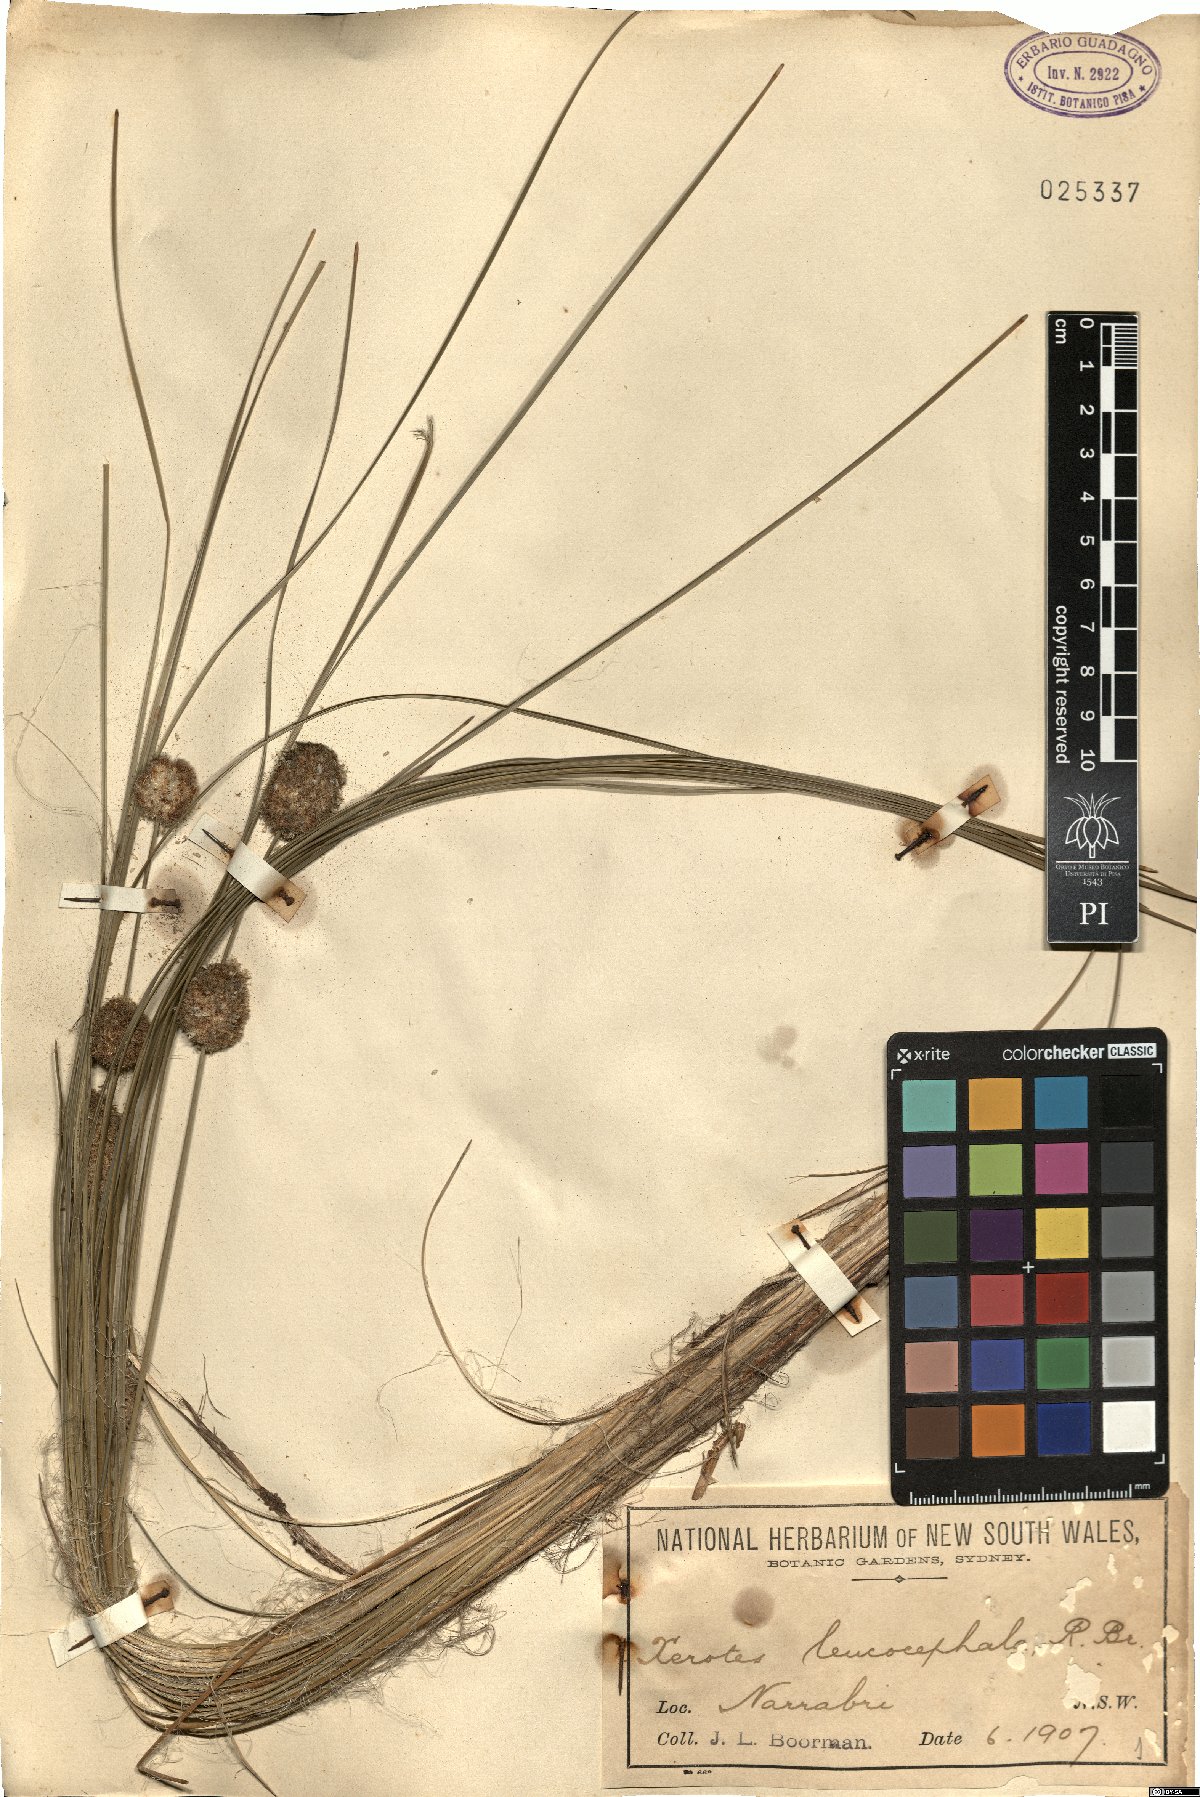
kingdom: Plantae
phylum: Tracheophyta
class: Liliopsida
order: Asparagales
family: Asparagaceae
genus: Lomandra
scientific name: Lomandra leucocephala
